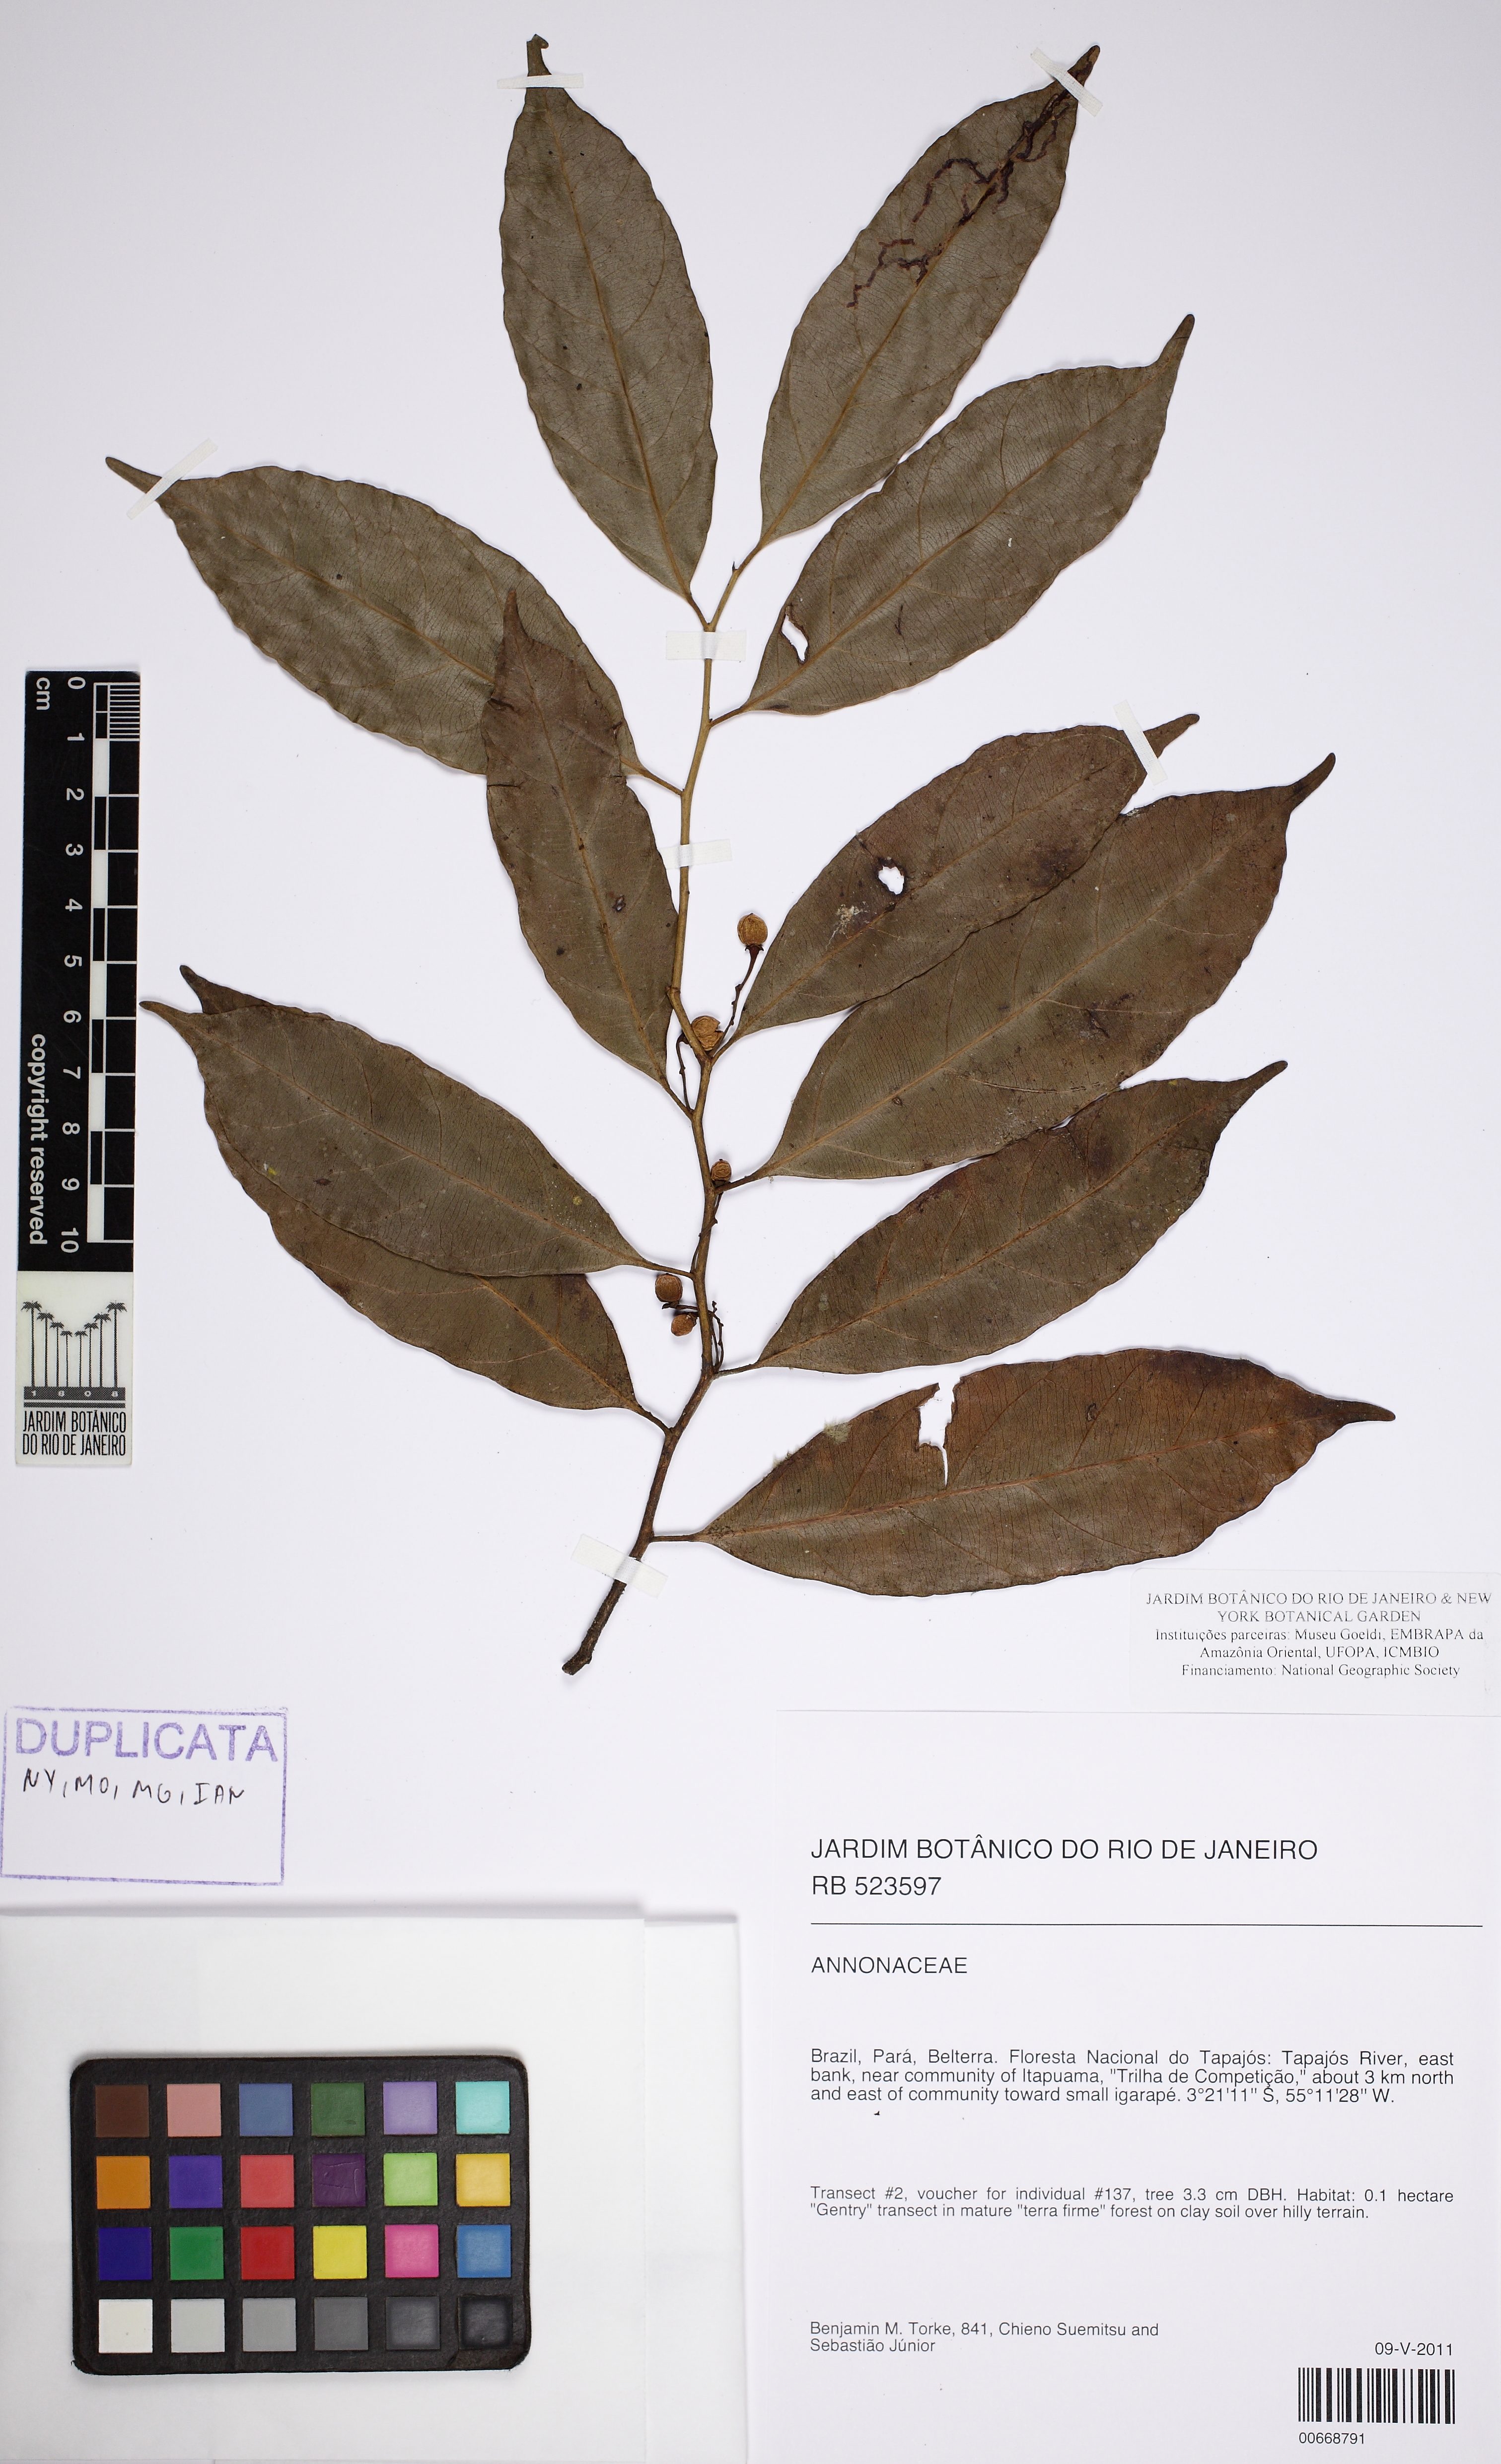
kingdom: Plantae
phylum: Tracheophyta
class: Magnoliopsida
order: Magnoliales
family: Myristicaceae
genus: Compsoneura
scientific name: Compsoneura ulei
